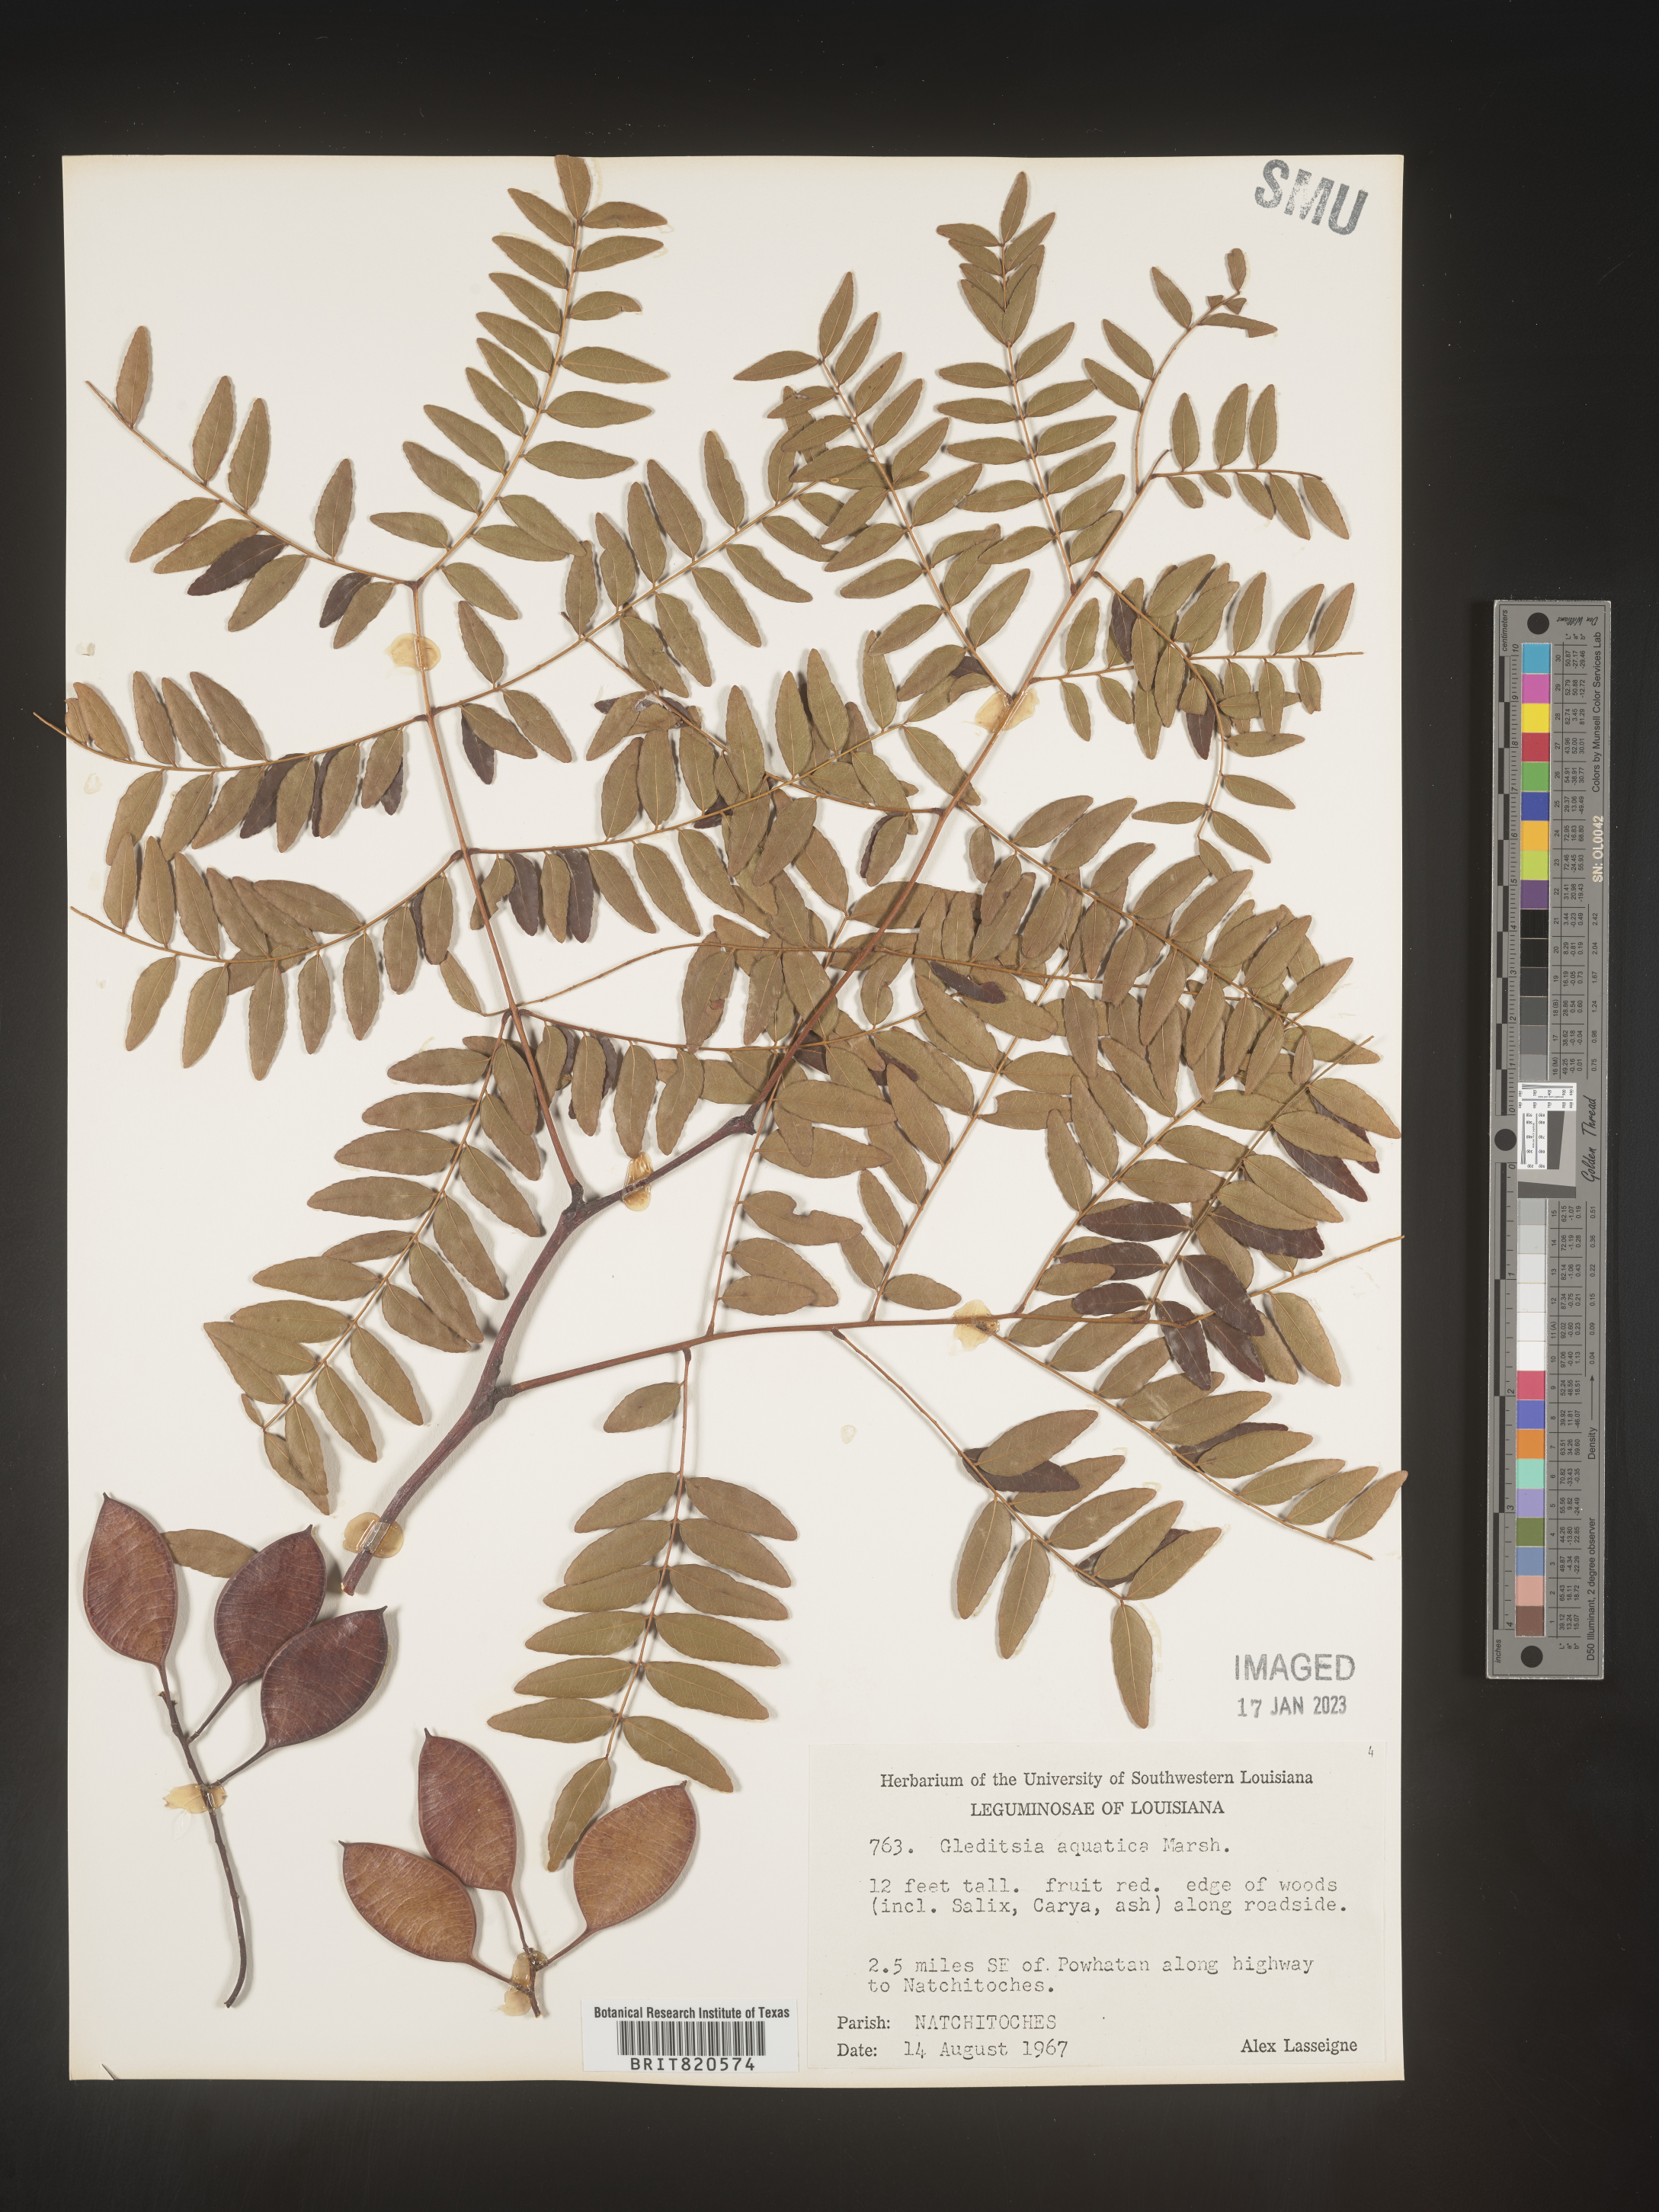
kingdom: Plantae
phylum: Tracheophyta
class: Magnoliopsida
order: Fabales
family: Fabaceae
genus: Gleditsia
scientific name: Gleditsia aquatica
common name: Swamp-locust
